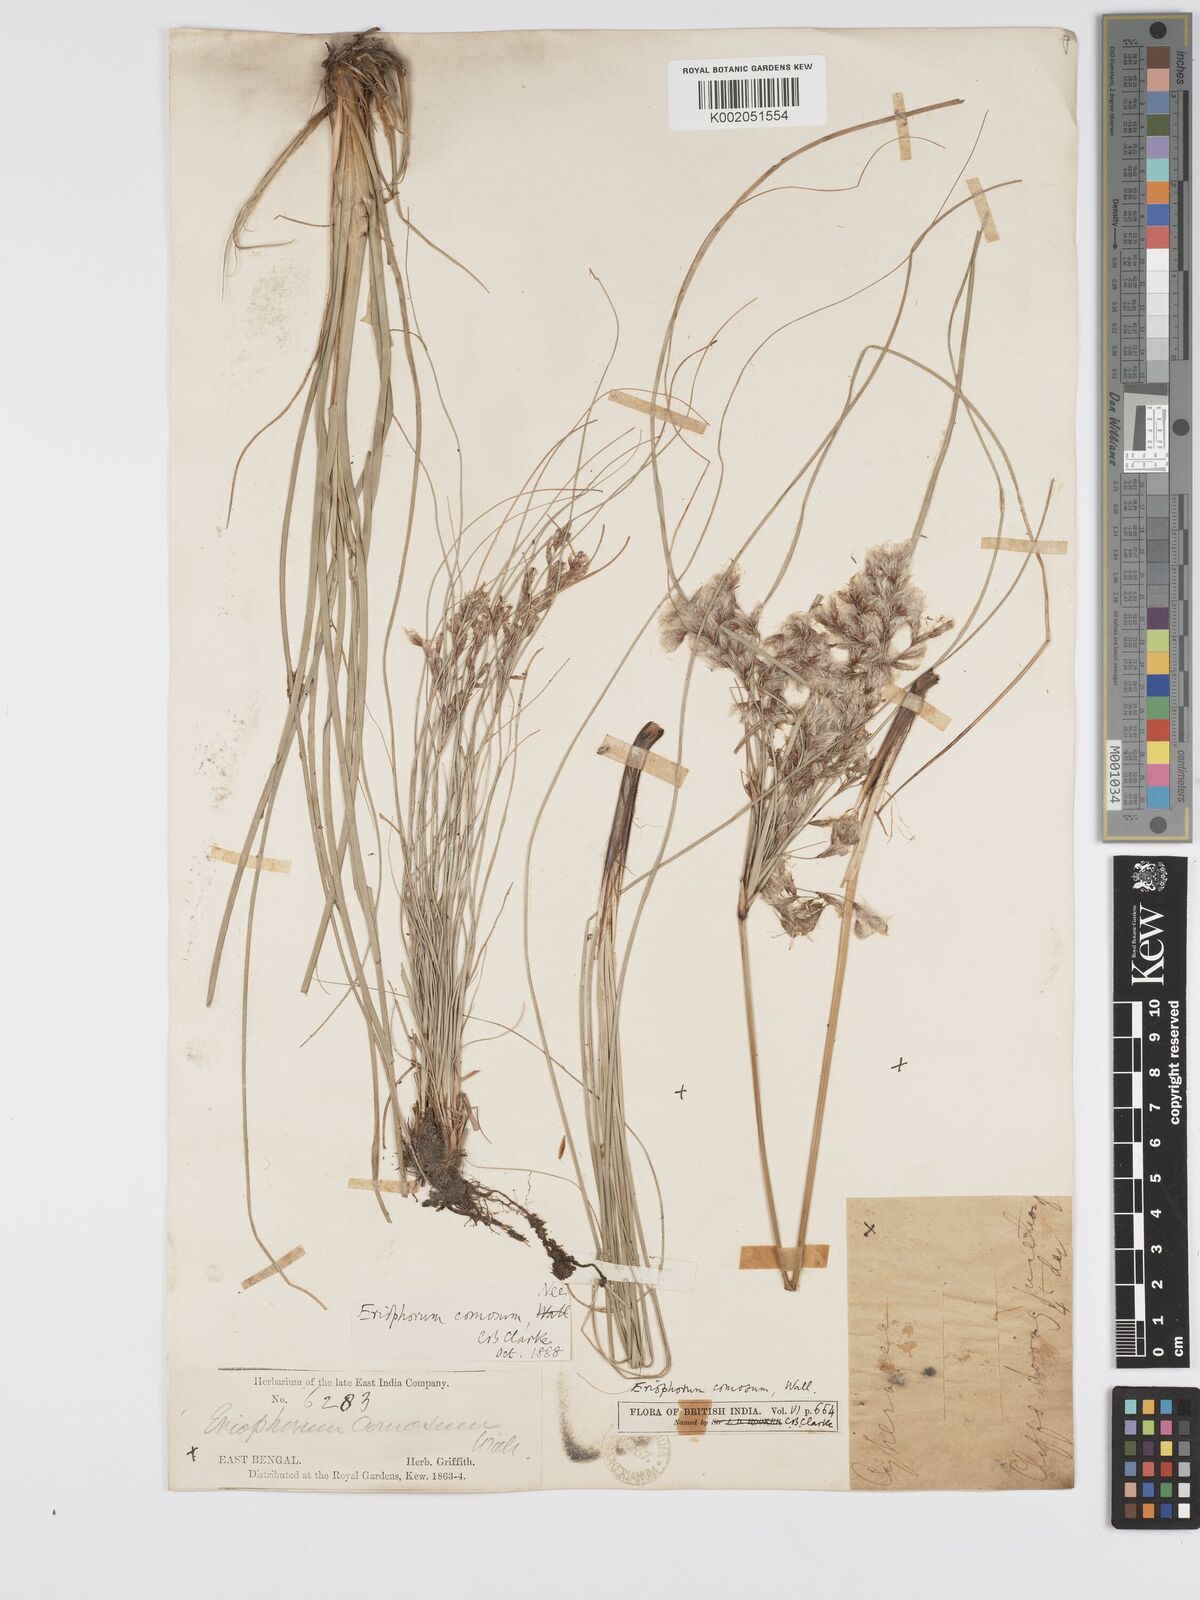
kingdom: Plantae
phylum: Tracheophyta
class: Liliopsida
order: Poales
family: Cyperaceae
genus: Erioscirpus
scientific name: Erioscirpus comosus
